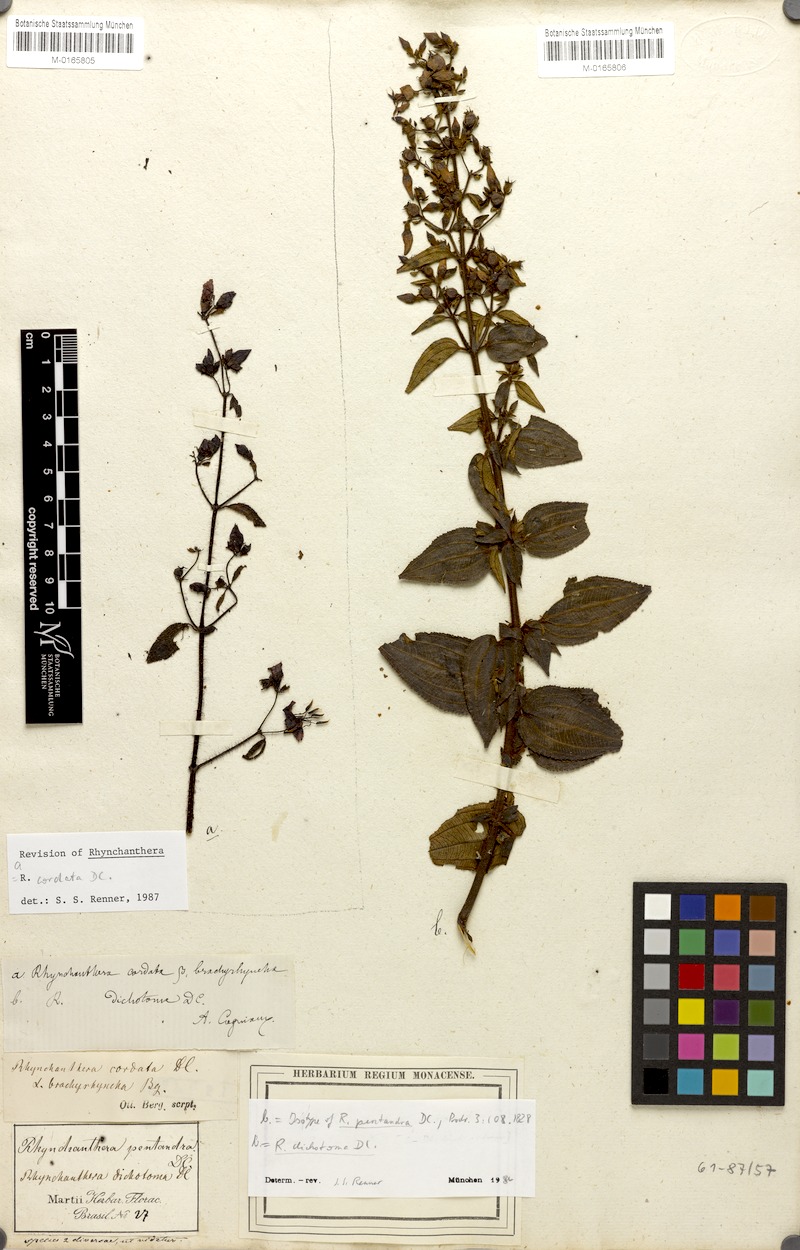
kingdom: Plantae
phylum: Tracheophyta
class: Magnoliopsida
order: Myrtales
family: Melastomataceae
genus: Rhynchanthera
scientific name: Rhynchanthera dichotoma
